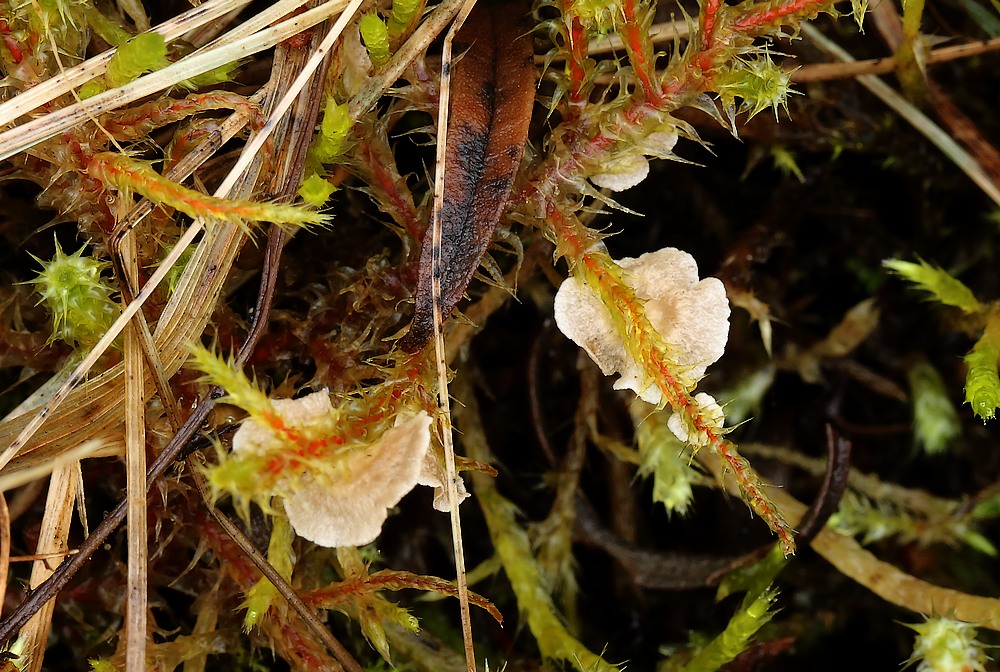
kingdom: Fungi
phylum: Basidiomycota
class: Agaricomycetes
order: Agaricales
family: Hygrophoraceae
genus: Arrhenia
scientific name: Arrhenia retiruga
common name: lille fontænehat
